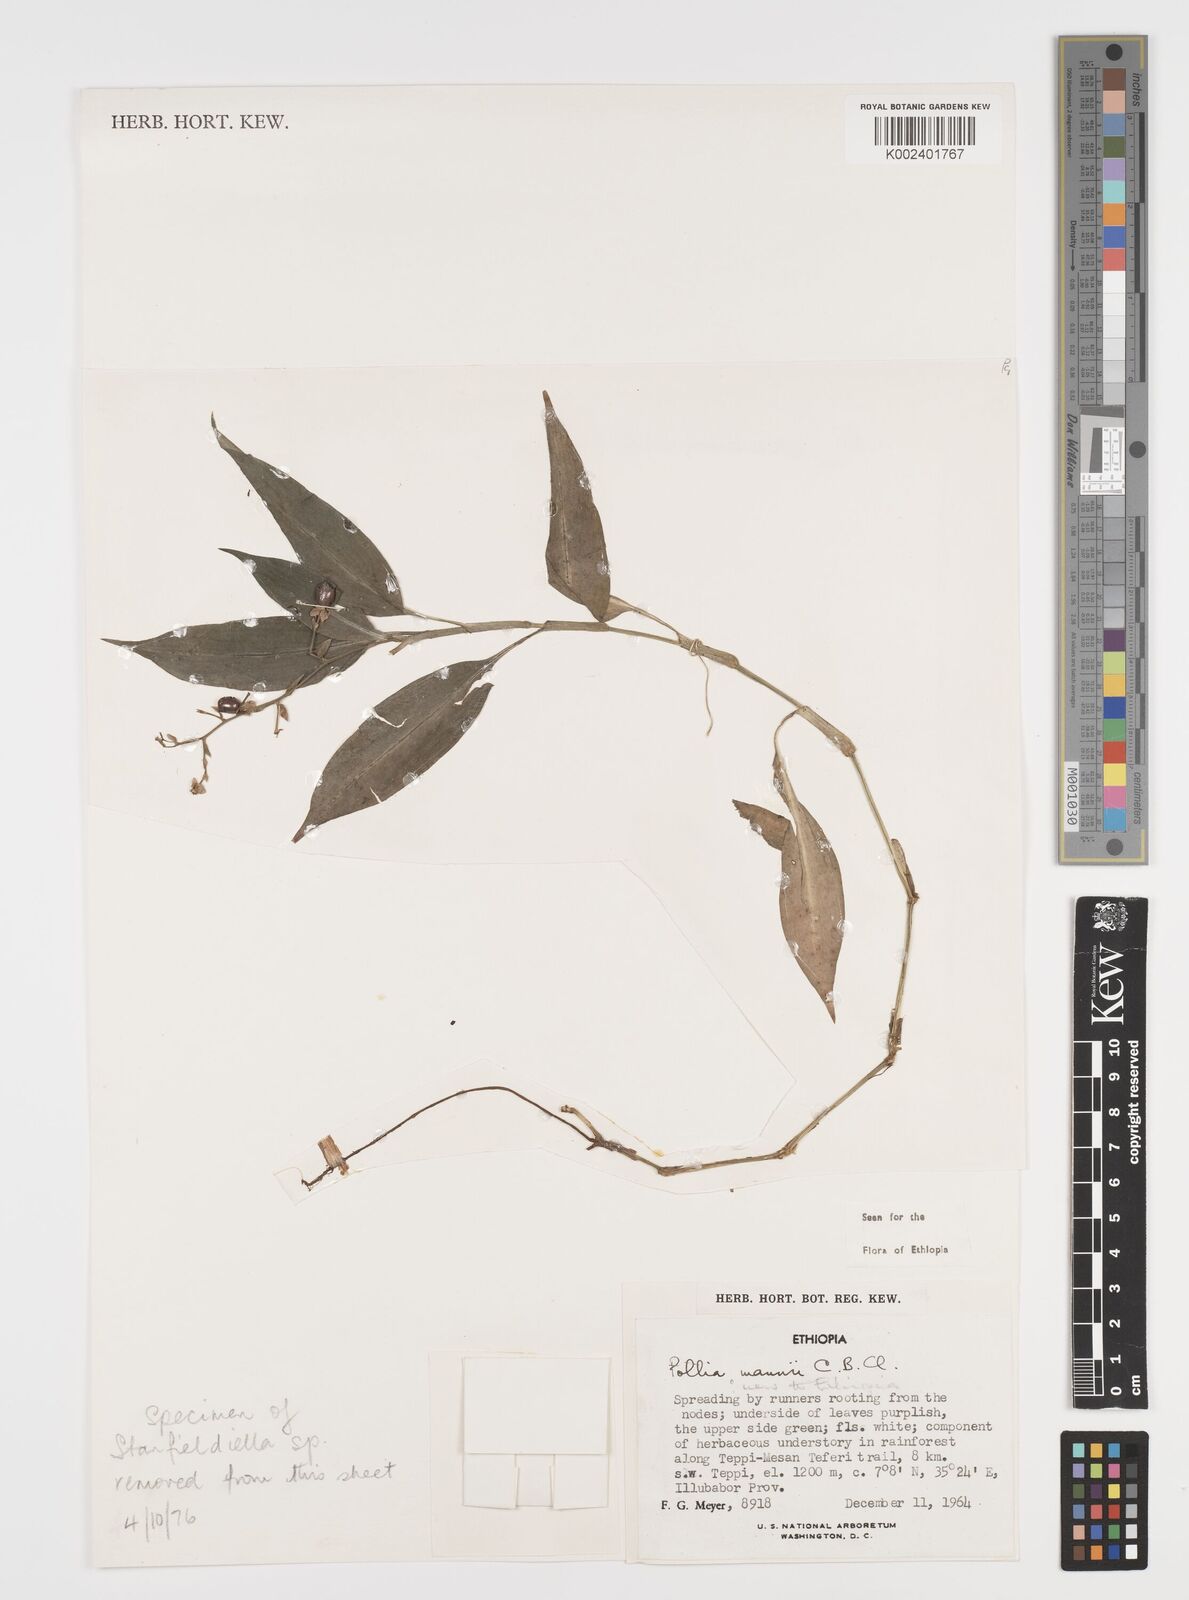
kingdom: Plantae
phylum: Tracheophyta
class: Liliopsida
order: Commelinales
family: Commelinaceae
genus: Pollia
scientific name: Pollia mannii
